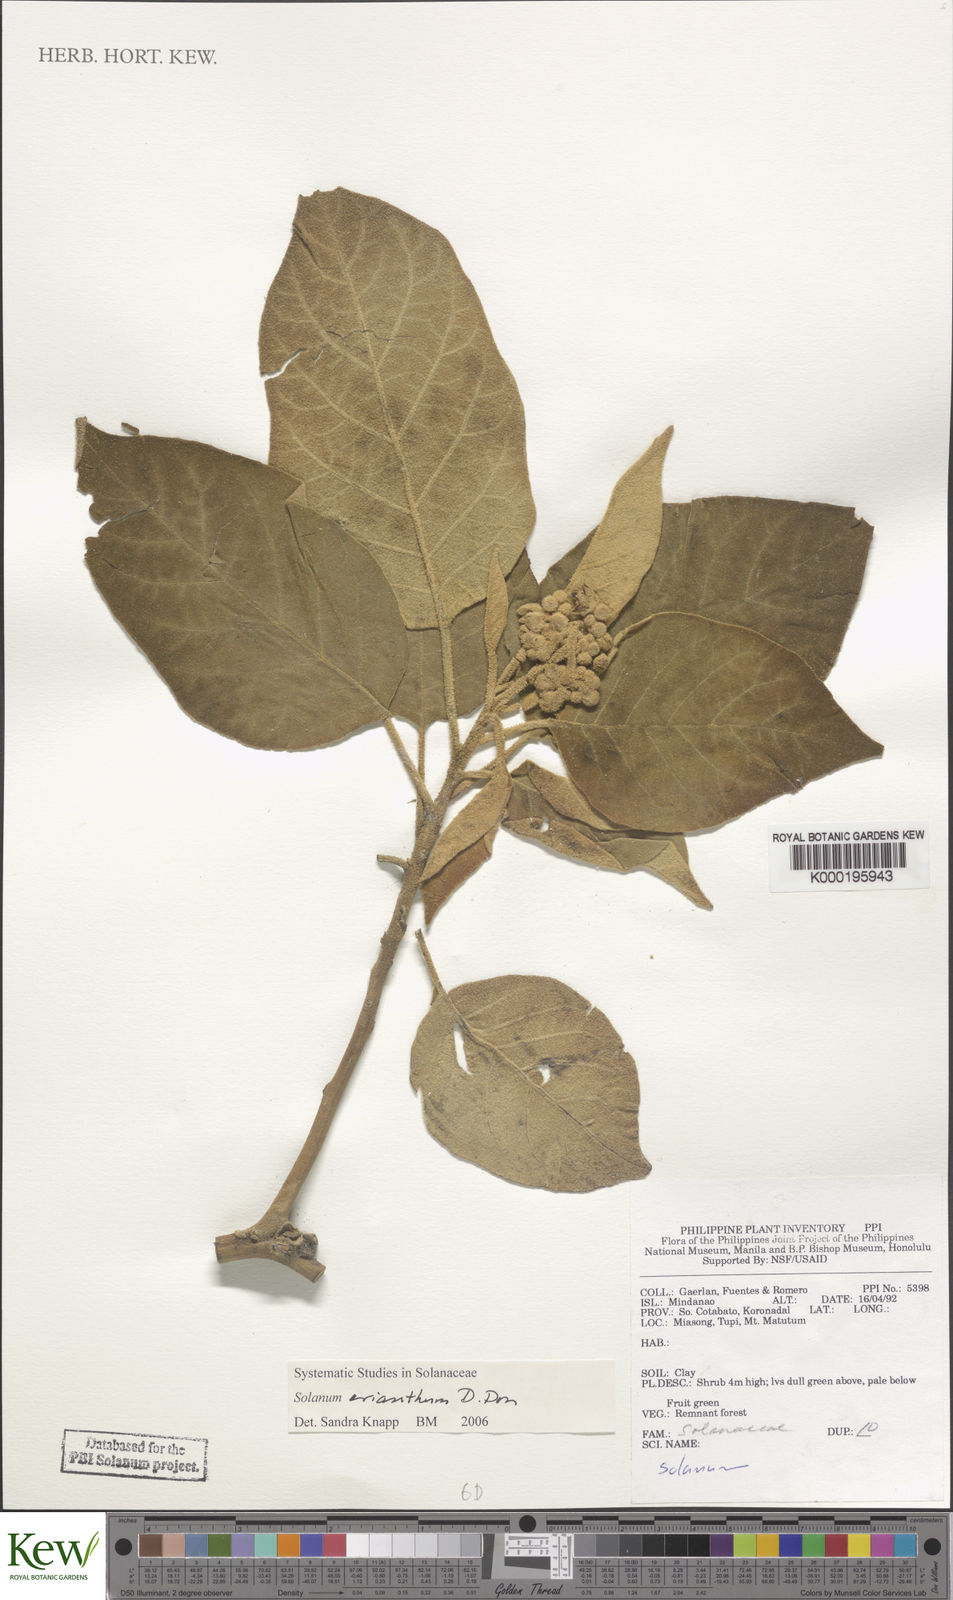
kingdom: Plantae
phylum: Tracheophyta
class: Magnoliopsida
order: Solanales
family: Solanaceae
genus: Solanum
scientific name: Solanum erianthum
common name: Tobacco-tree
